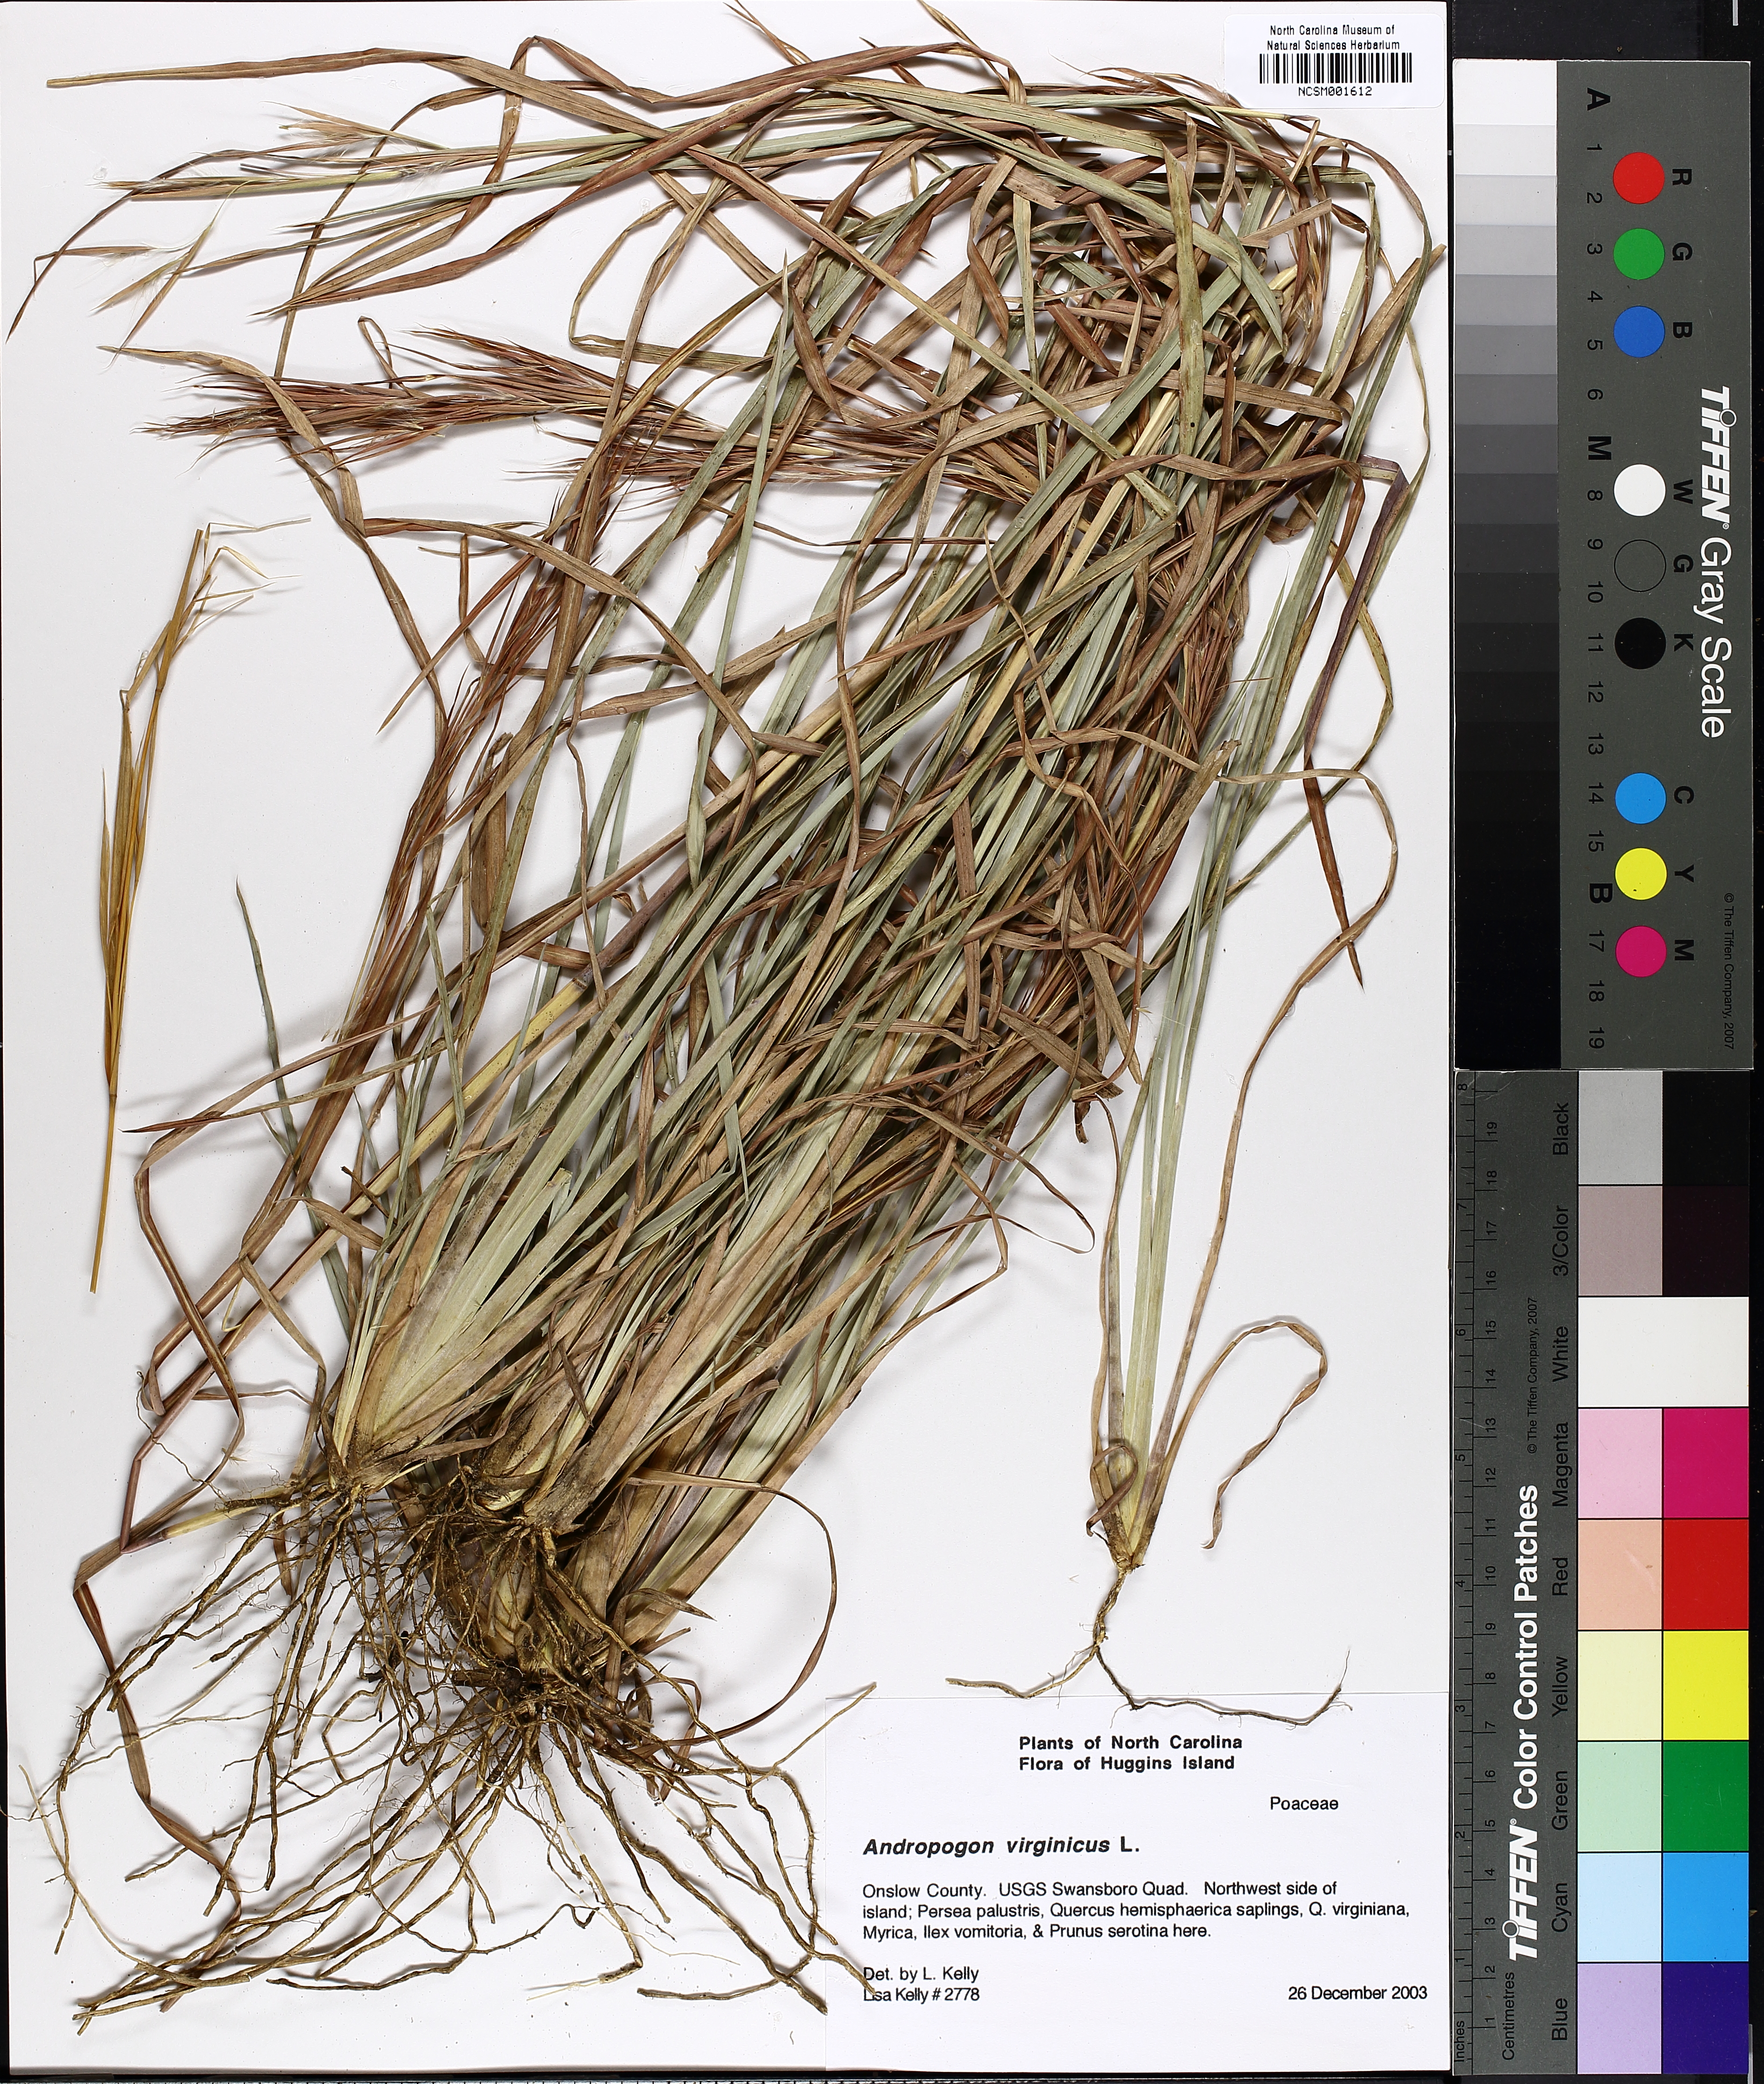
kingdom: Plantae
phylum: Tracheophyta
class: Liliopsida
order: Poales
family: Poaceae
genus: Andropogon
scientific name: Andropogon virginicus
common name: Broomsedge bluestem
